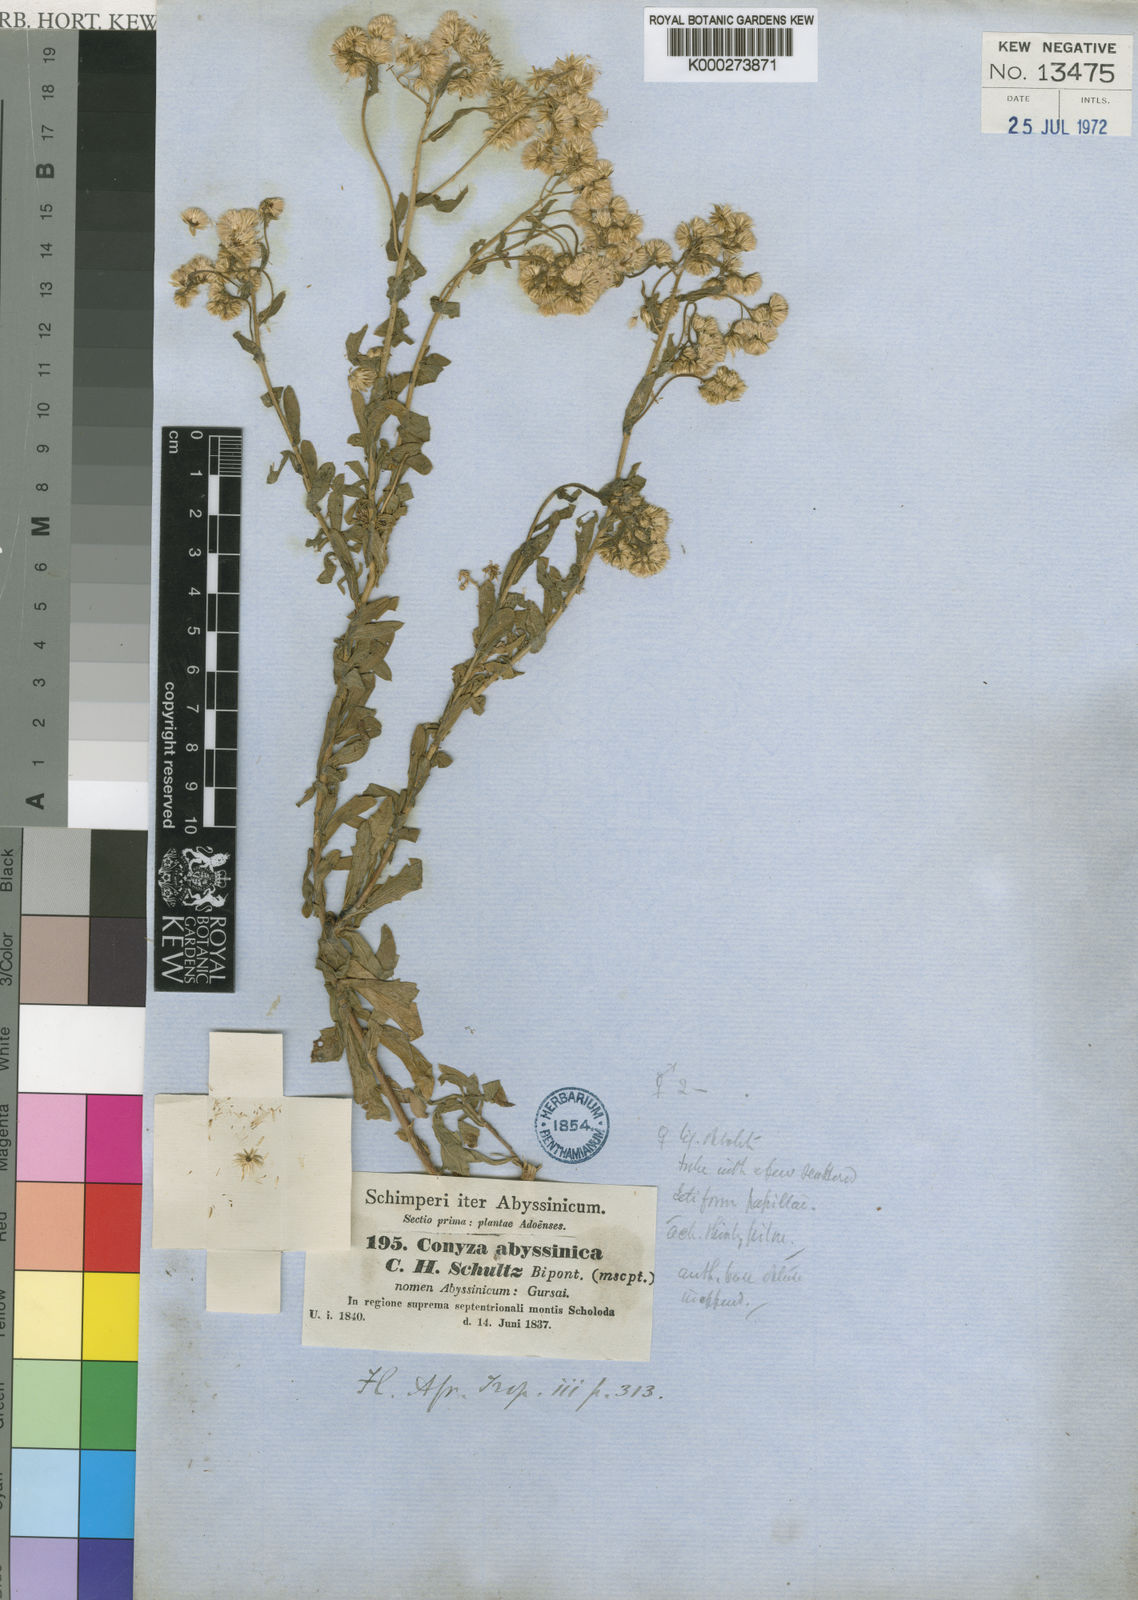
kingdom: Plantae
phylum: Tracheophyta
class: Magnoliopsida
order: Asterales
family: Asteraceae
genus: Conyza
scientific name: Conyza abyssinica
